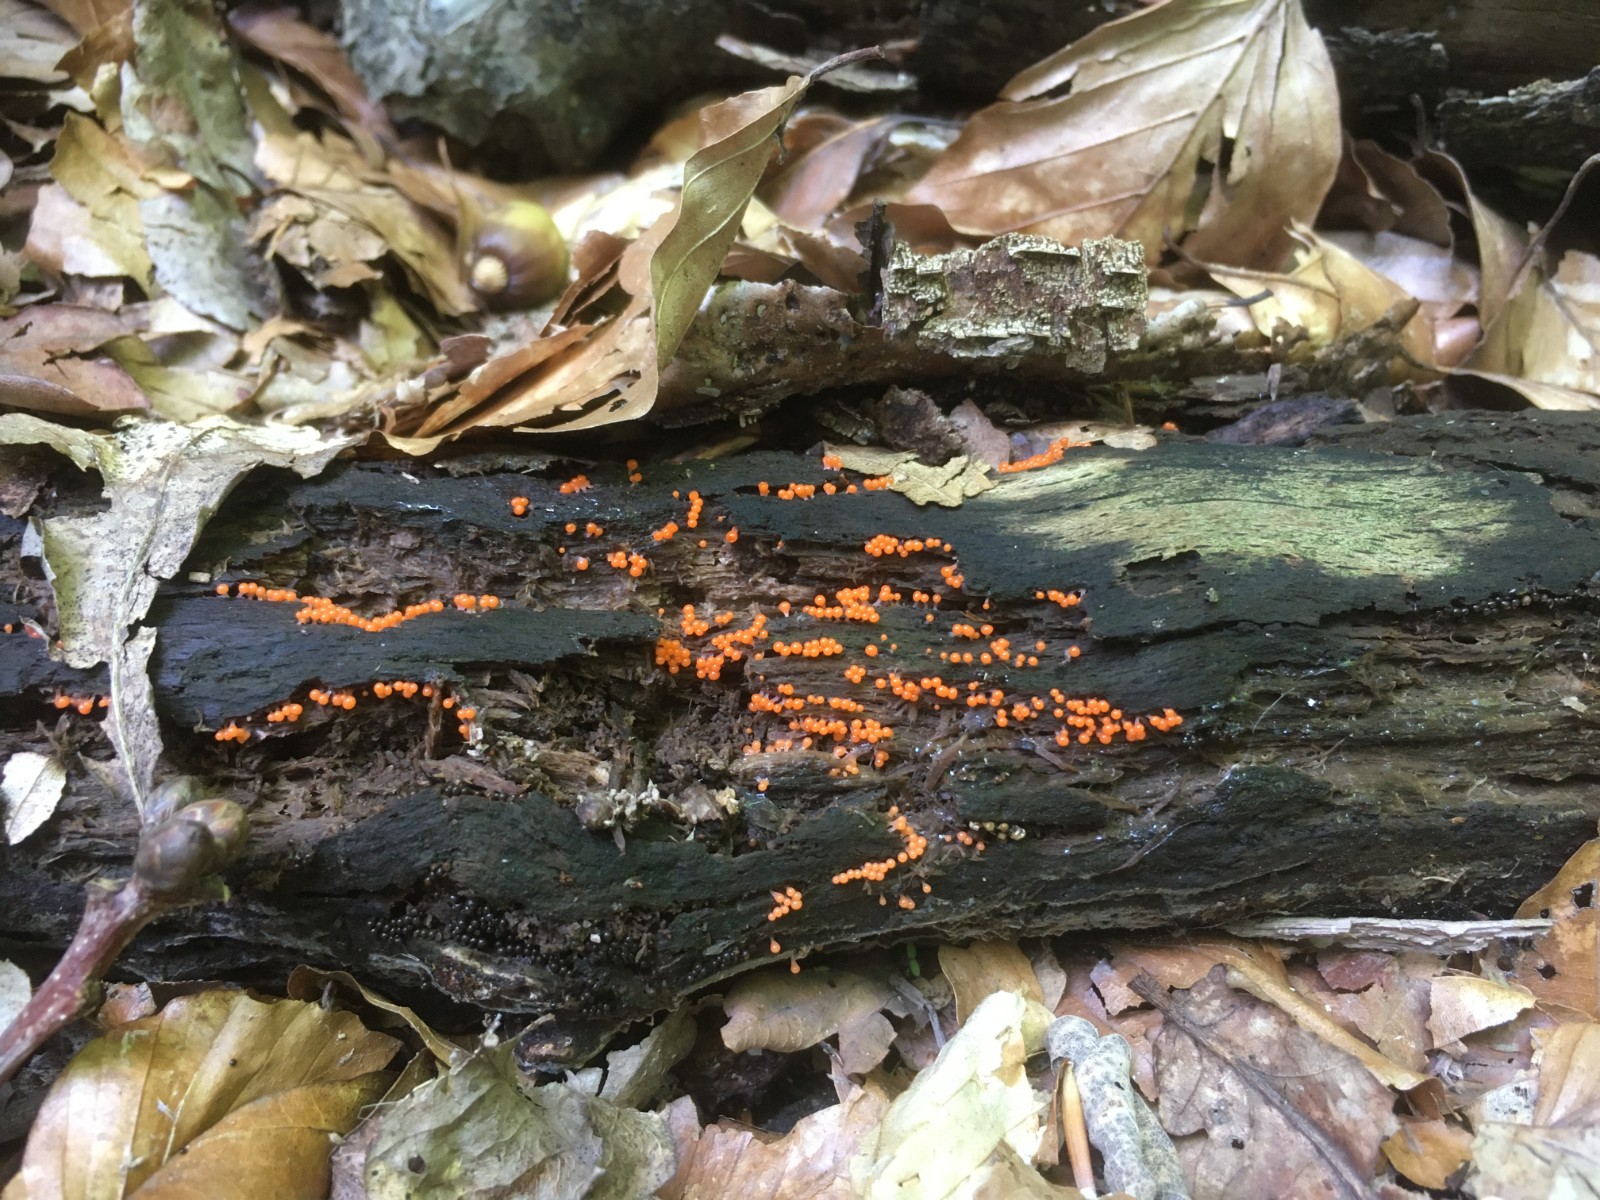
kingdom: Protozoa
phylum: Mycetozoa
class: Myxomycetes
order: Trichiales
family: Trichiaceae
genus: Trichia
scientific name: Trichia crateriformis
